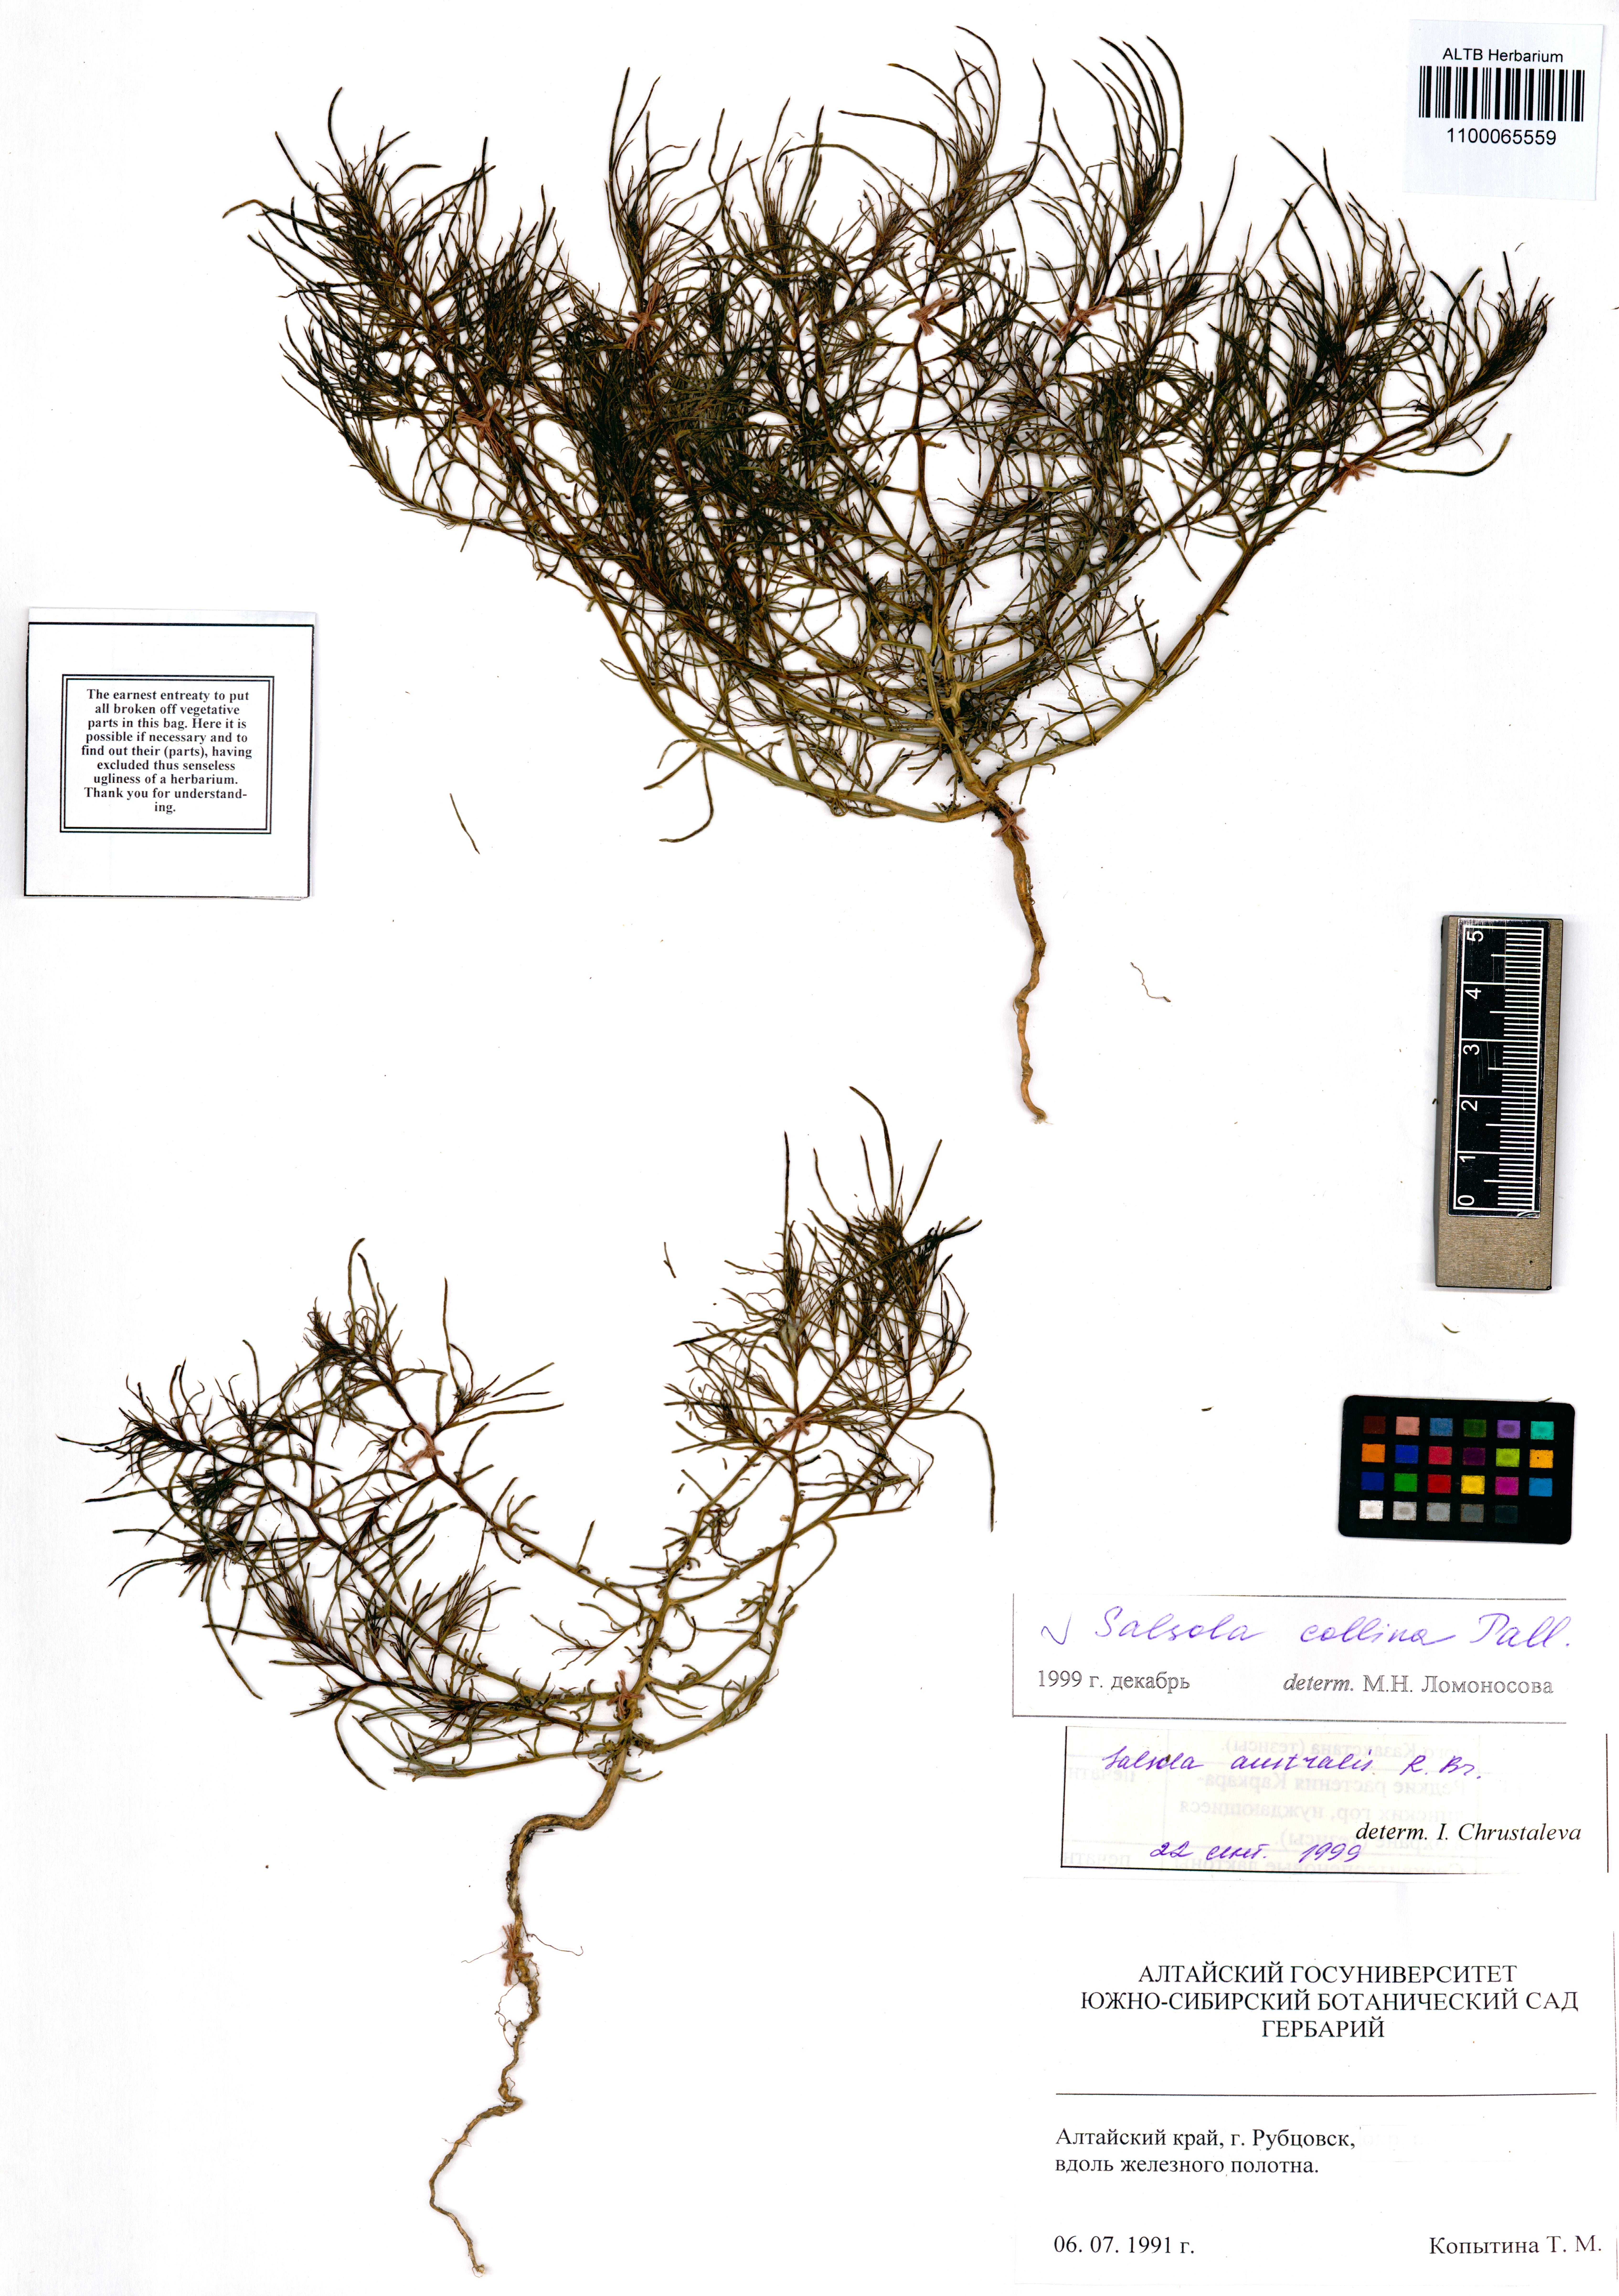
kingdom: Plantae
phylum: Tracheophyta
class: Magnoliopsida
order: Caryophyllales
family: Amaranthaceae
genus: Salsola
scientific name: Salsola collina
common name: Tumbleweed
